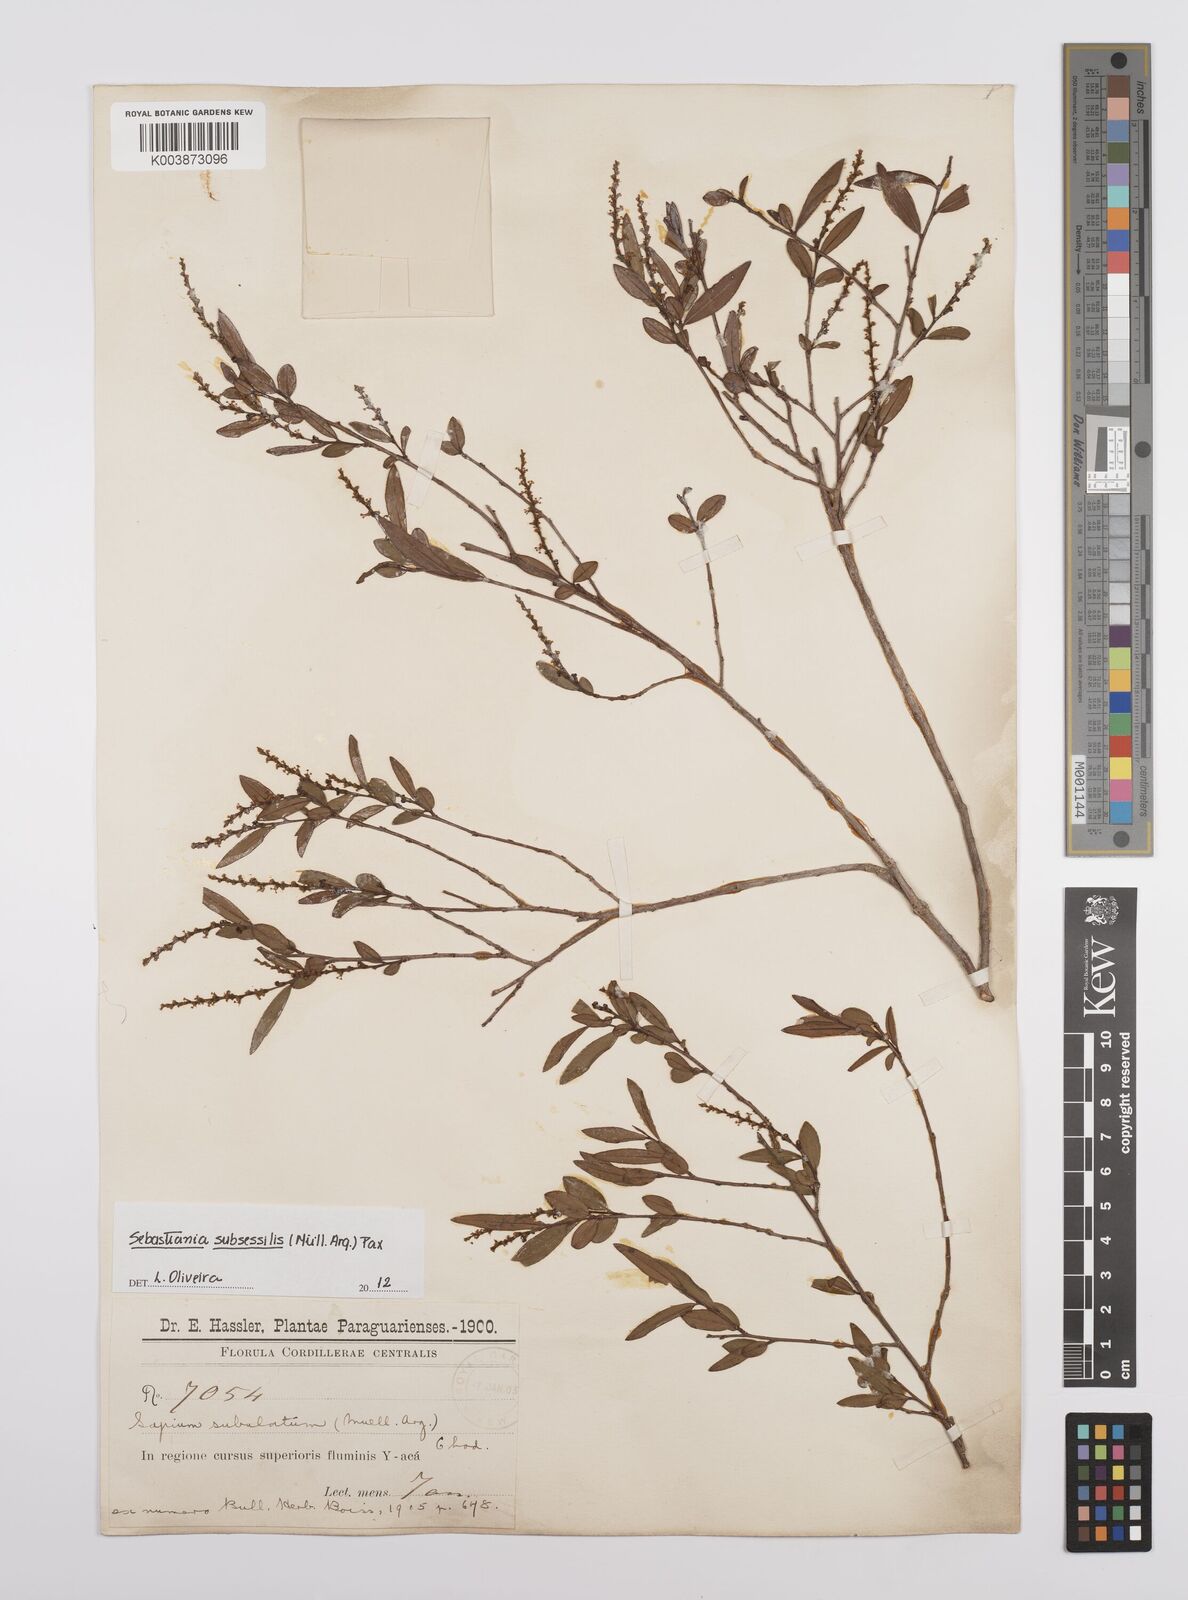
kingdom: Plantae
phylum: Tracheophyta
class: Magnoliopsida
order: Malpighiales
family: Euphorbiaceae
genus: Sebastiania
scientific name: Sebastiania subsessilis
